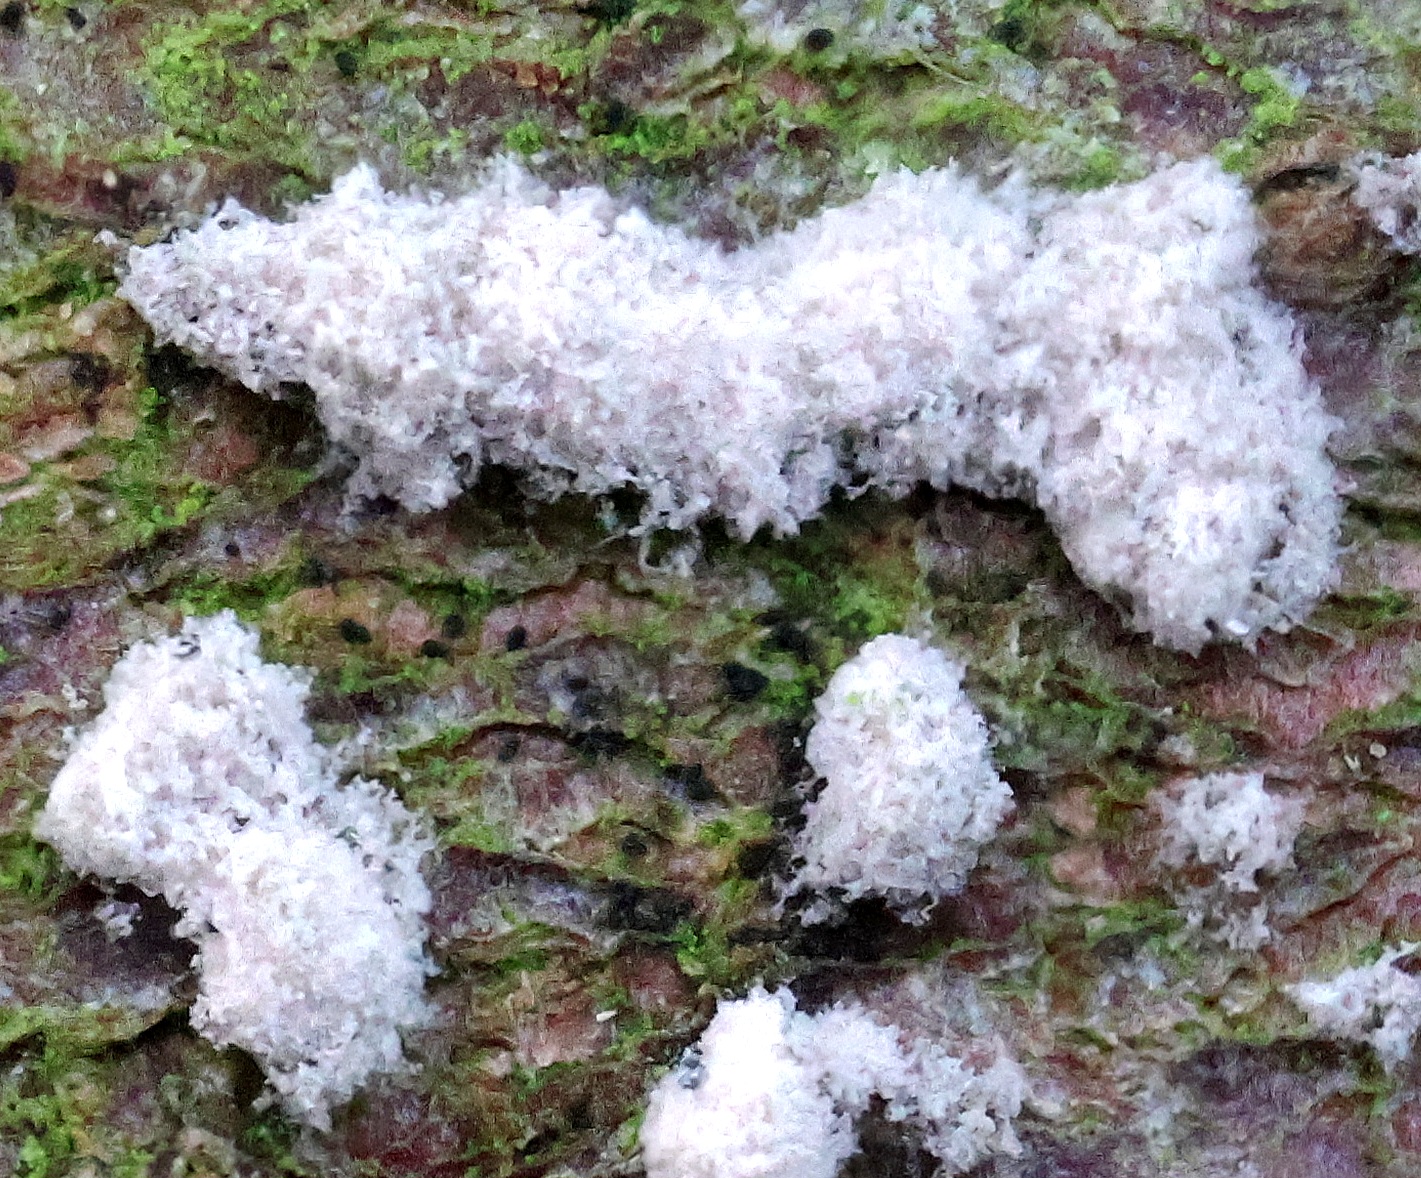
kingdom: Fungi
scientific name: Fungi
